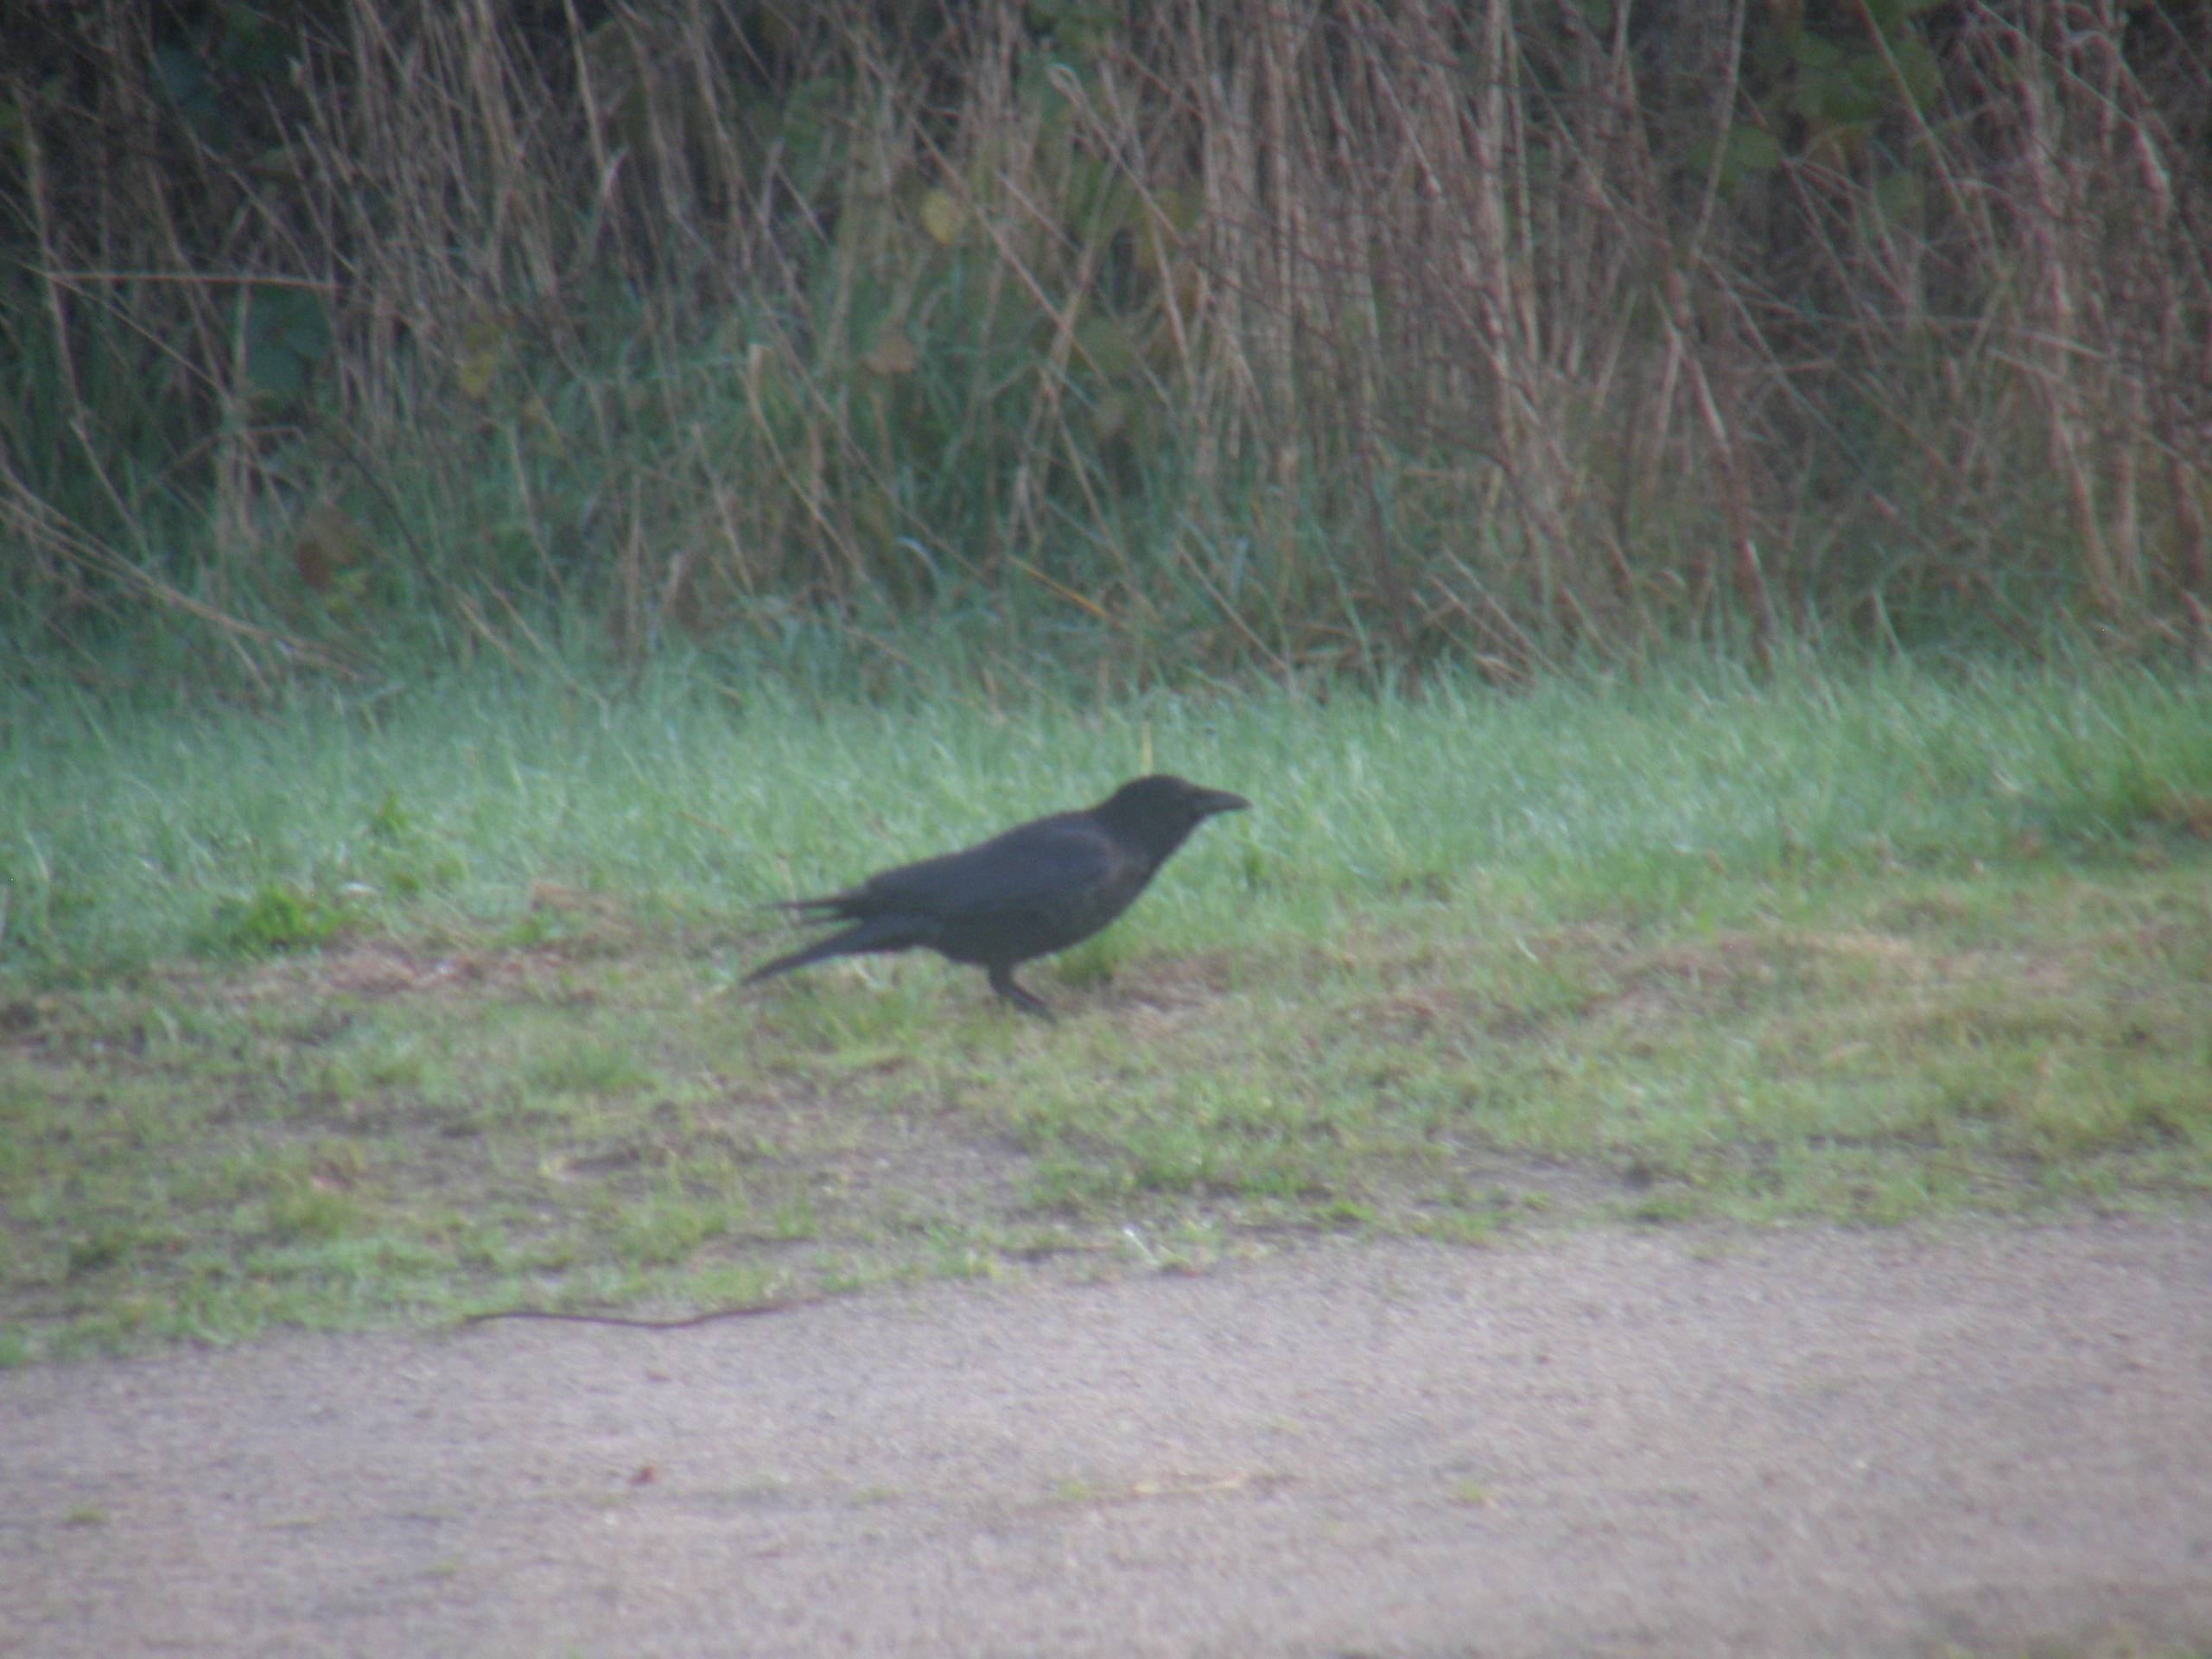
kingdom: Animalia
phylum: Chordata
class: Aves
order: Passeriformes
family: Corvidae
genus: Corvus
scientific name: Corvus corone
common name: Sortkrage
